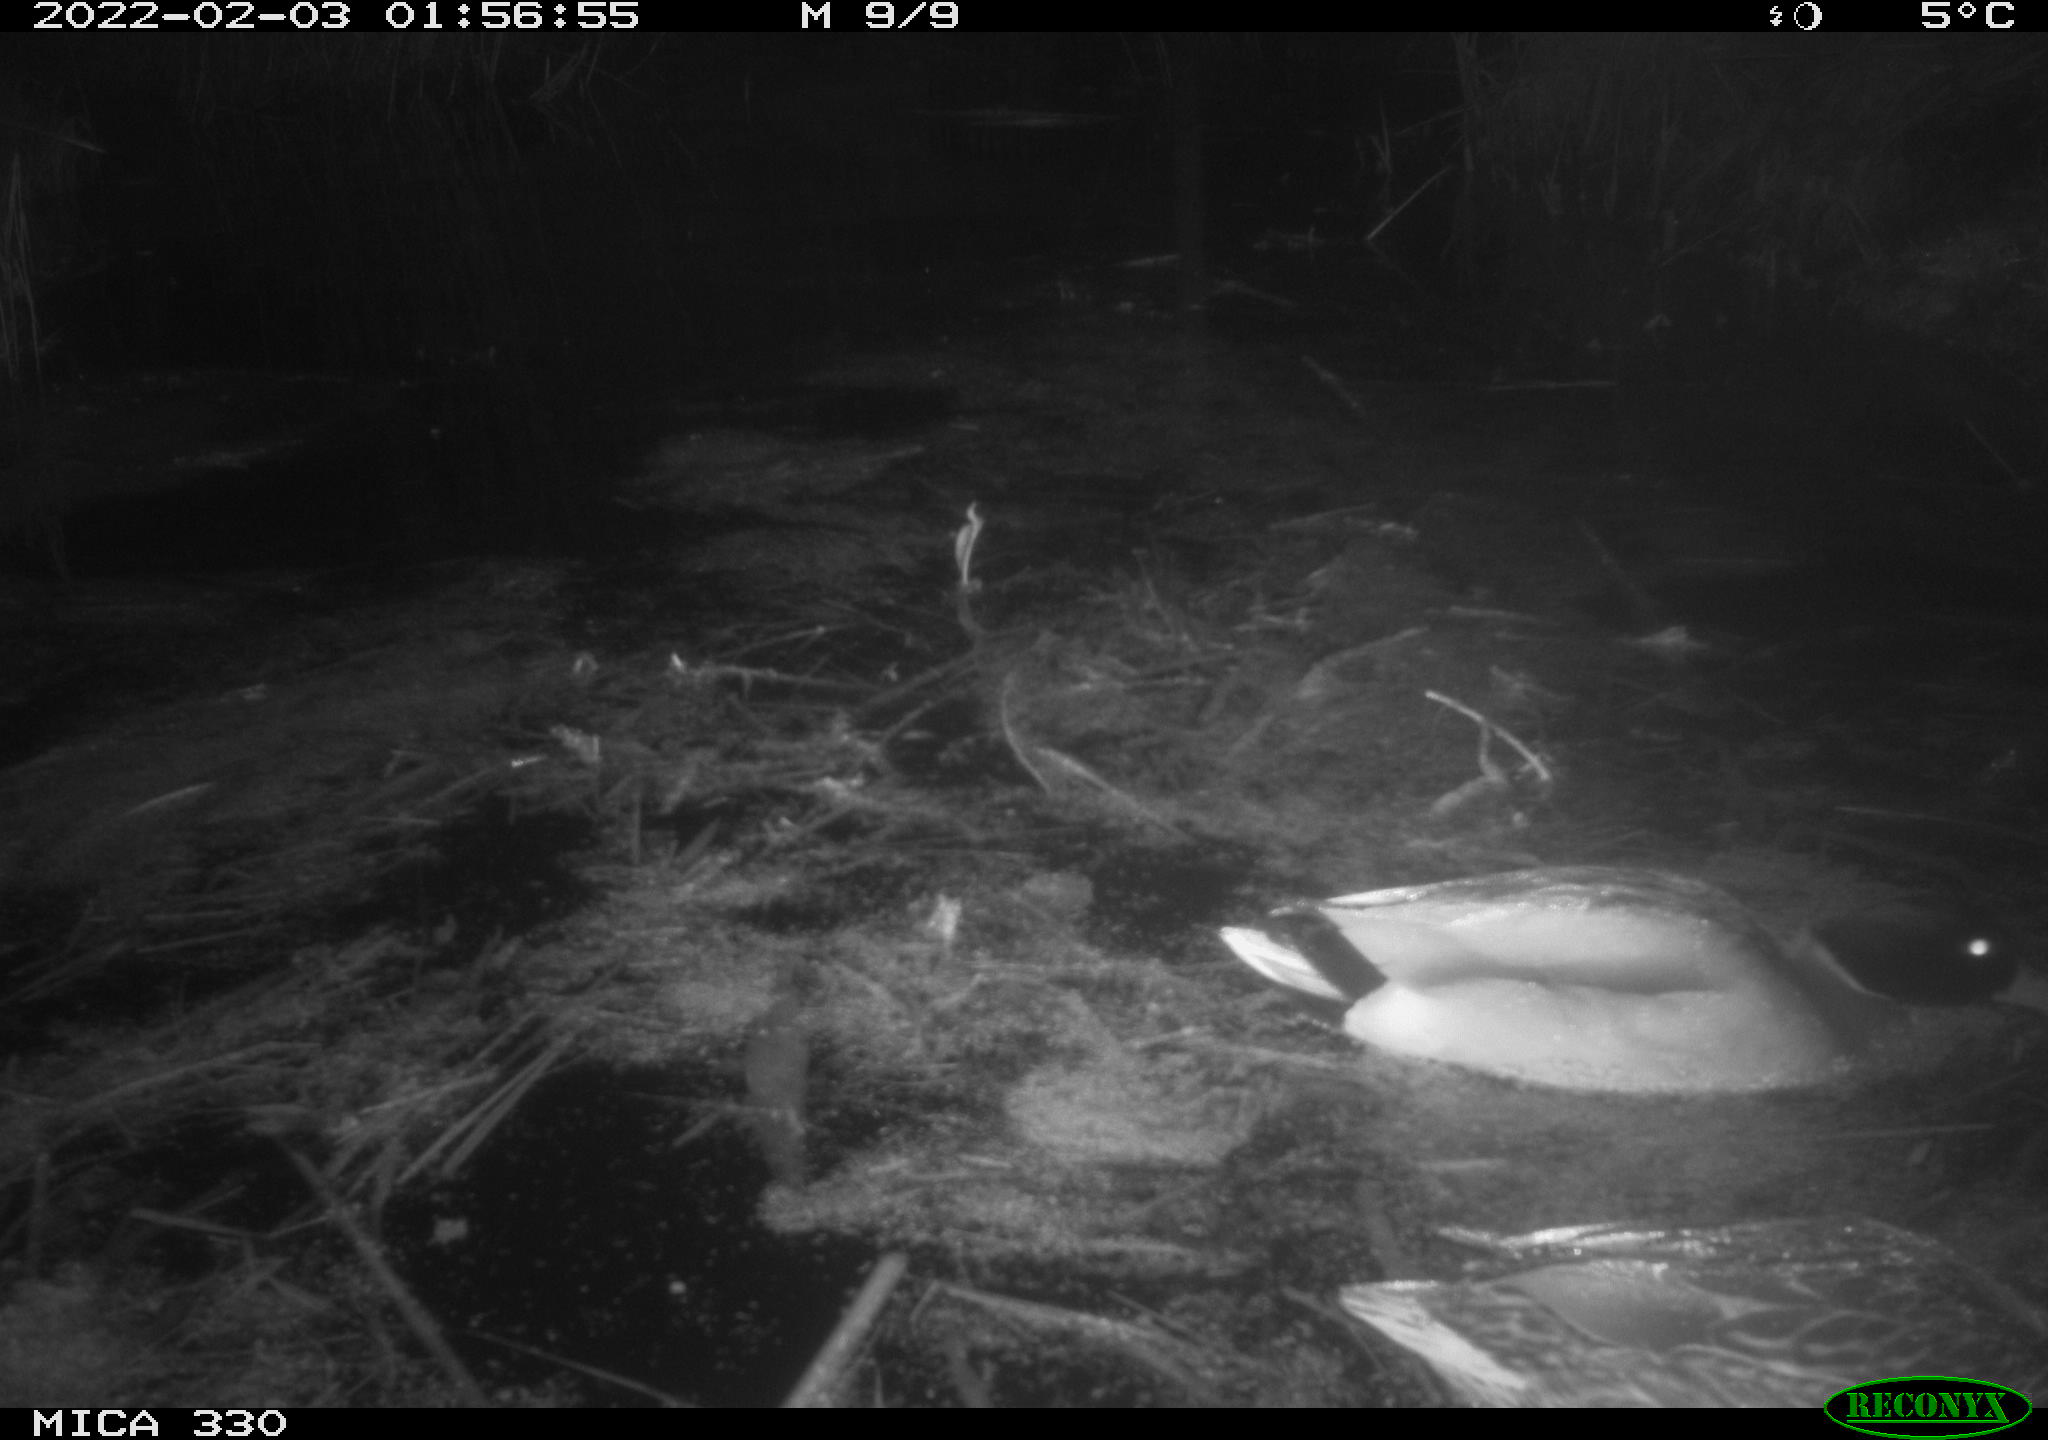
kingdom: Animalia
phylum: Chordata
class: Aves
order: Anseriformes
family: Anatidae
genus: Anas
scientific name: Anas platyrhynchos
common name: Mallard
